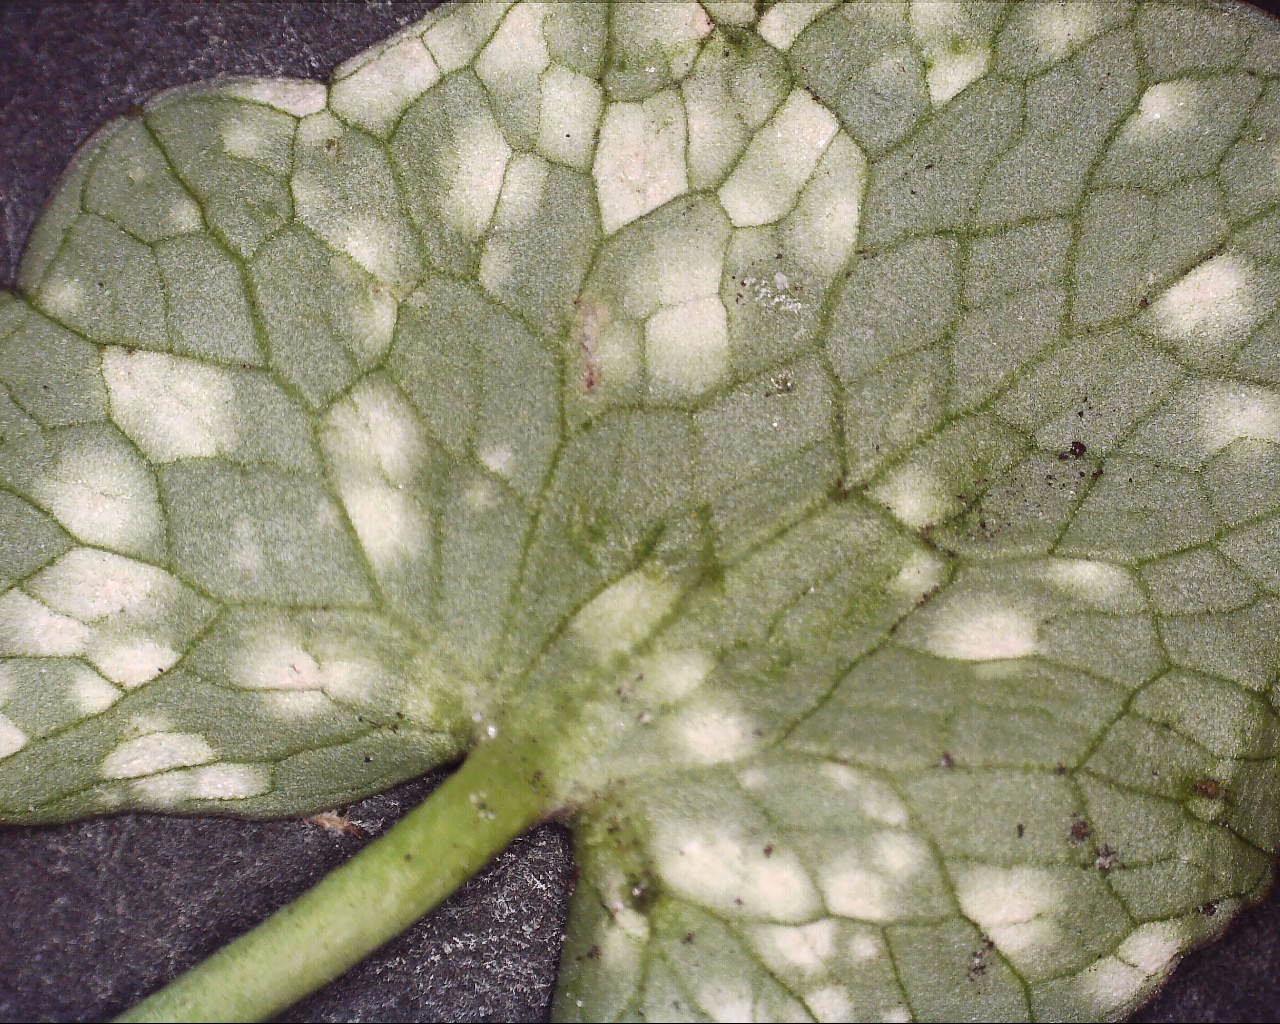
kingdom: Fungi
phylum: Basidiomycota
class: Exobasidiomycetes
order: Entylomatales
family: Entylomataceae
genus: Entyloma
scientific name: Entyloma ficariae
